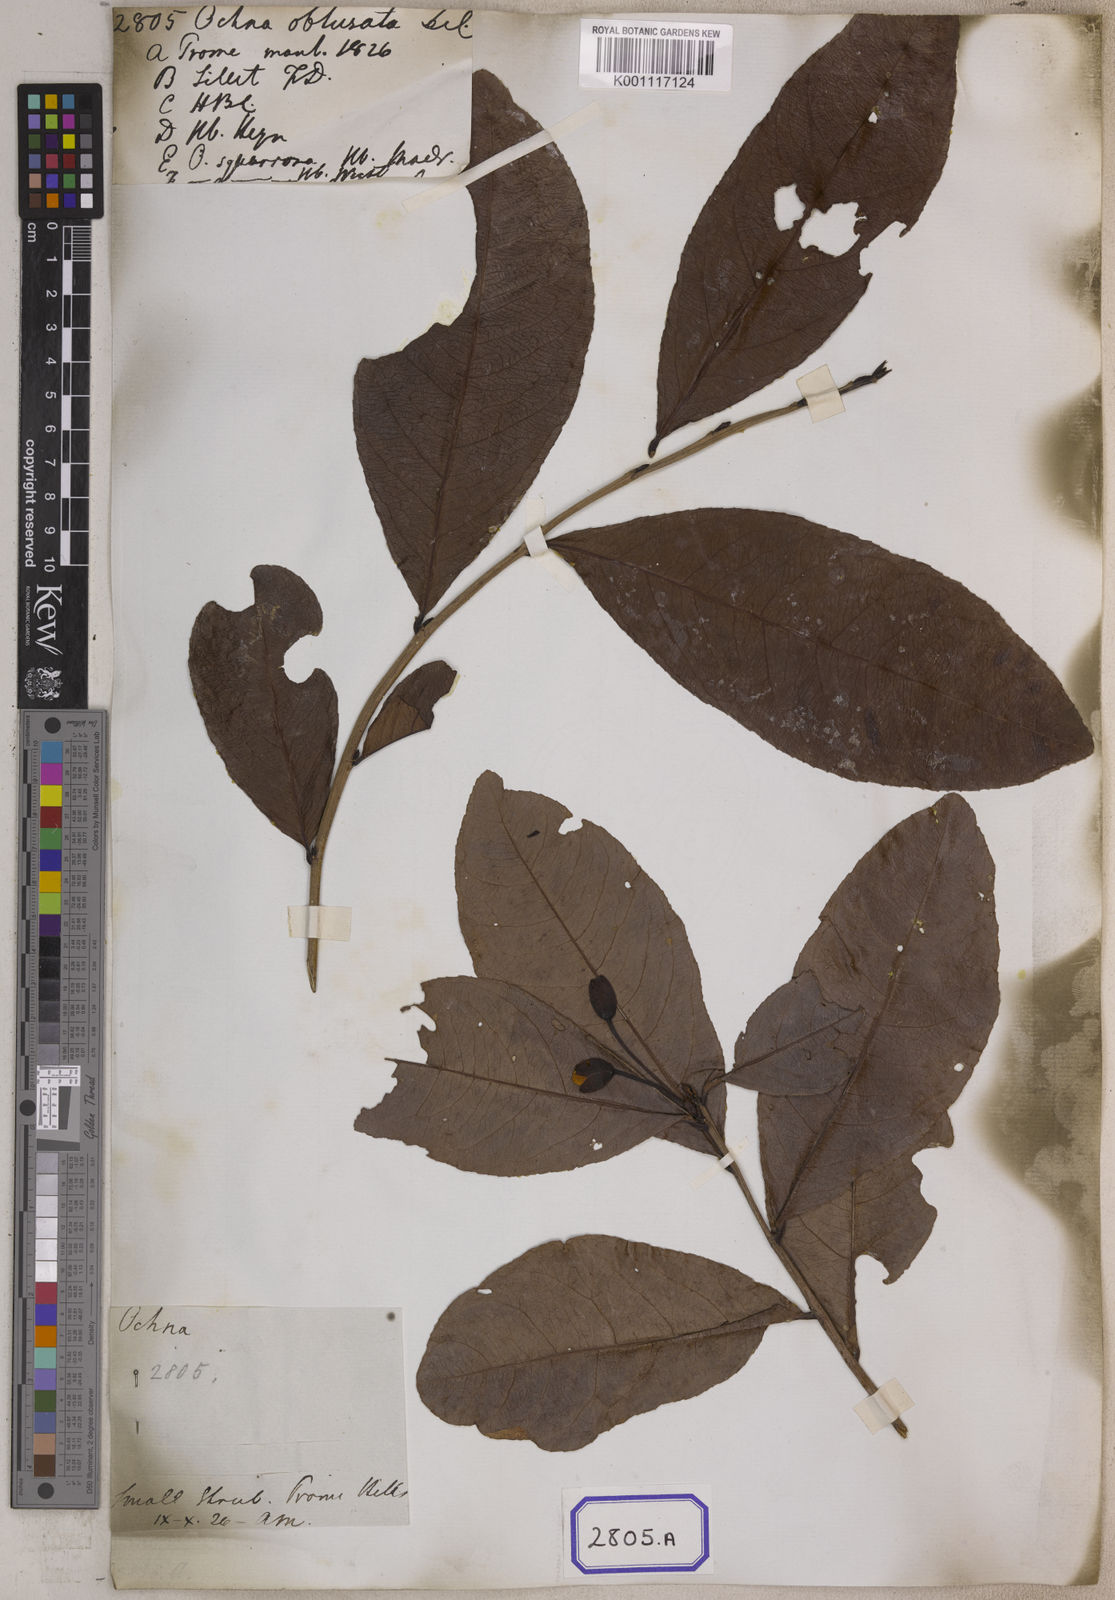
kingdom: Plantae
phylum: Tracheophyta
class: Magnoliopsida
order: Malpighiales
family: Ochnaceae
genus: Ochna
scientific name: Ochna obtusata
